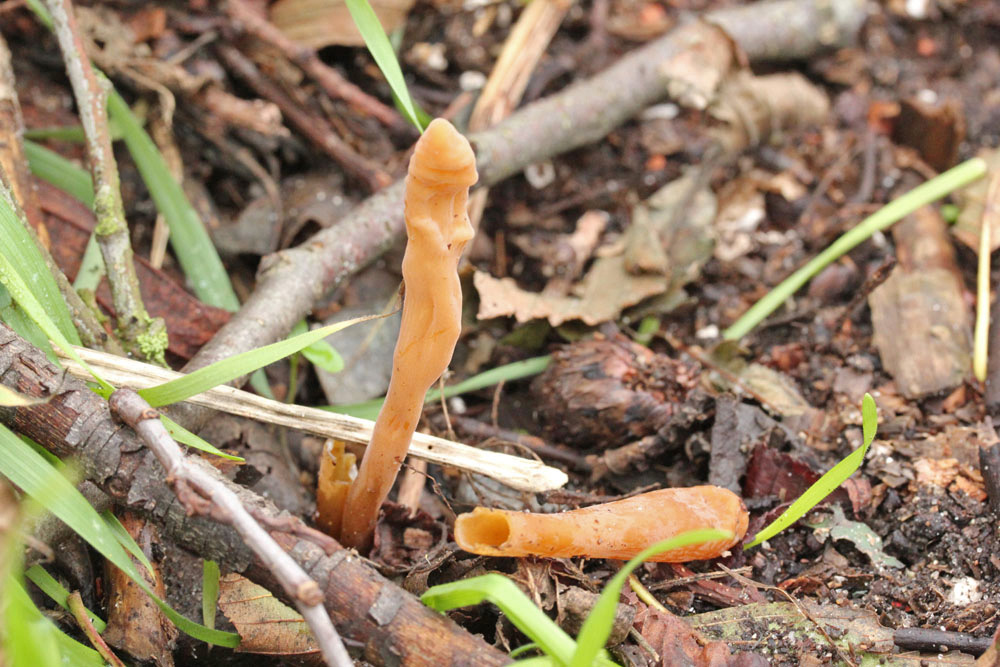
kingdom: Fungi
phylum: Basidiomycota
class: Agaricomycetes
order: Agaricales
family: Typhulaceae
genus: Typhula
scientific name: Typhula fistulosa
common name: pibet rørkølle
